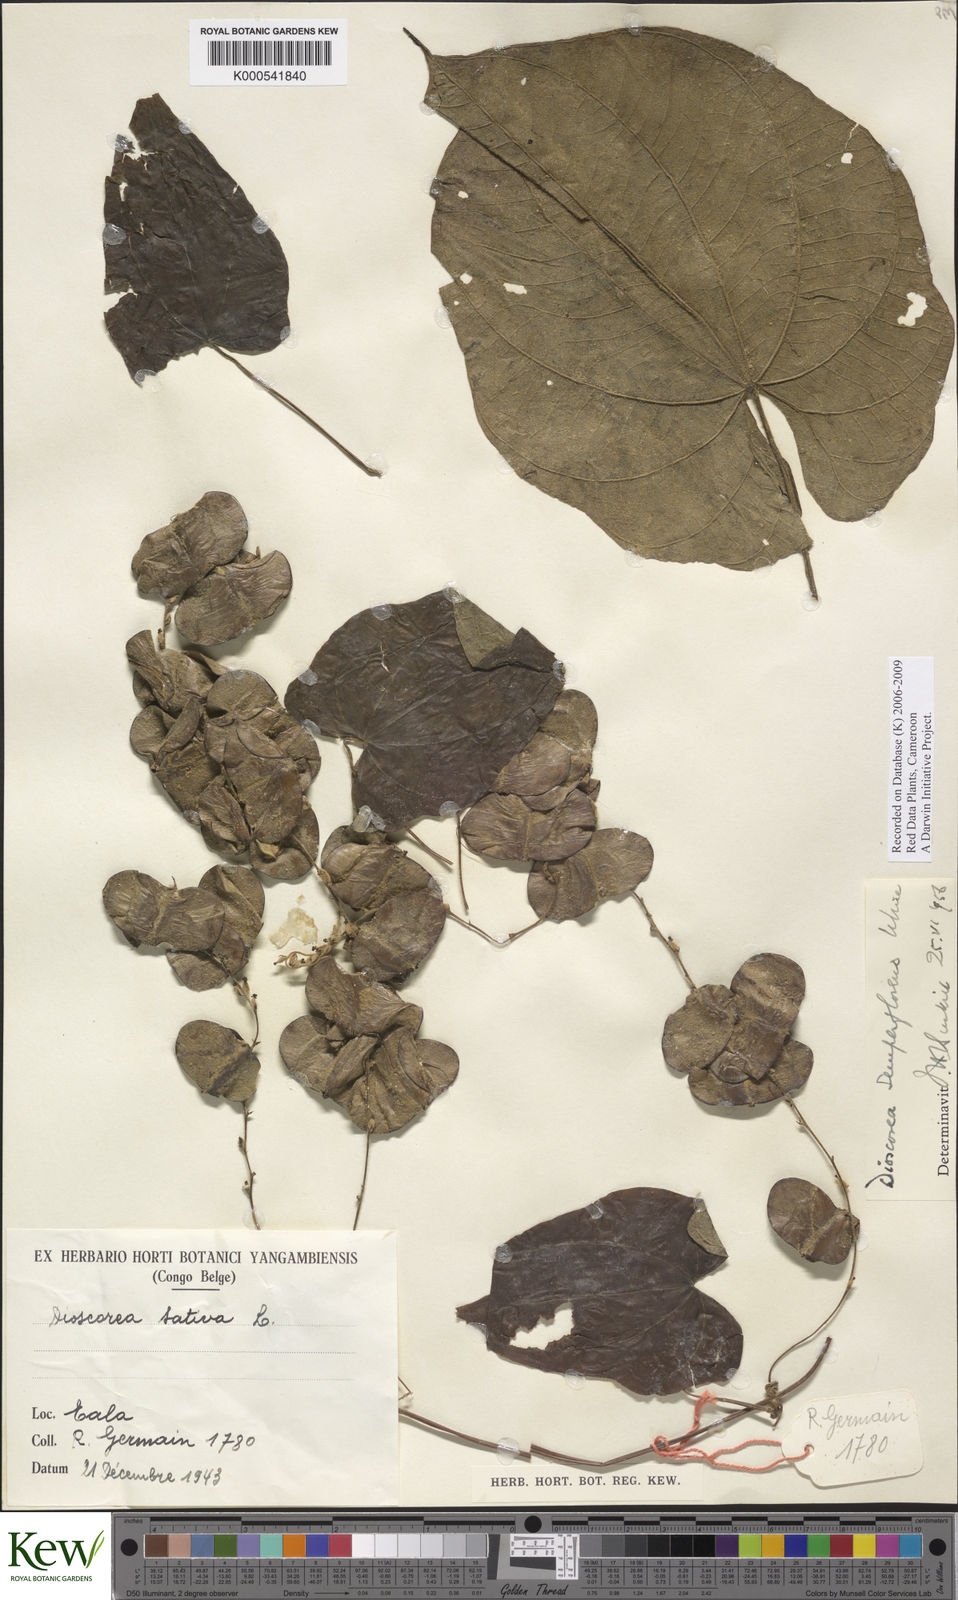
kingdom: Plantae
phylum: Tracheophyta
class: Liliopsida
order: Dioscoreales
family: Dioscoreaceae
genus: Dioscorea
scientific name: Dioscorea semperflorens
